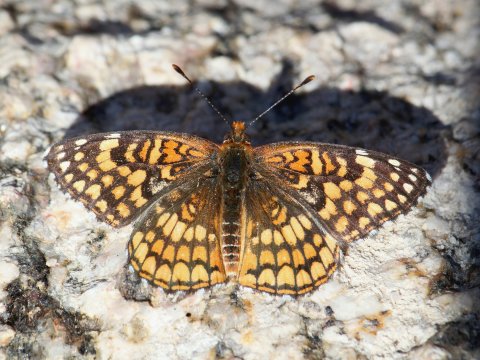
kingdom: Animalia
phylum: Arthropoda
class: Insecta
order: Lepidoptera
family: Nymphalidae
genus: Chlosyne
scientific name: Chlosyne acastus
